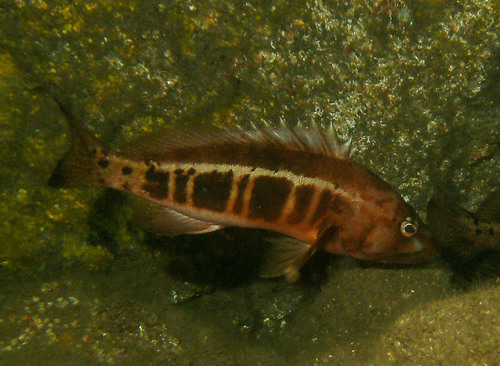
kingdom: Animalia
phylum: Chordata
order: Perciformes
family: Serranidae
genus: Serranus
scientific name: Serranus atricauda
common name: Blacktail comber
